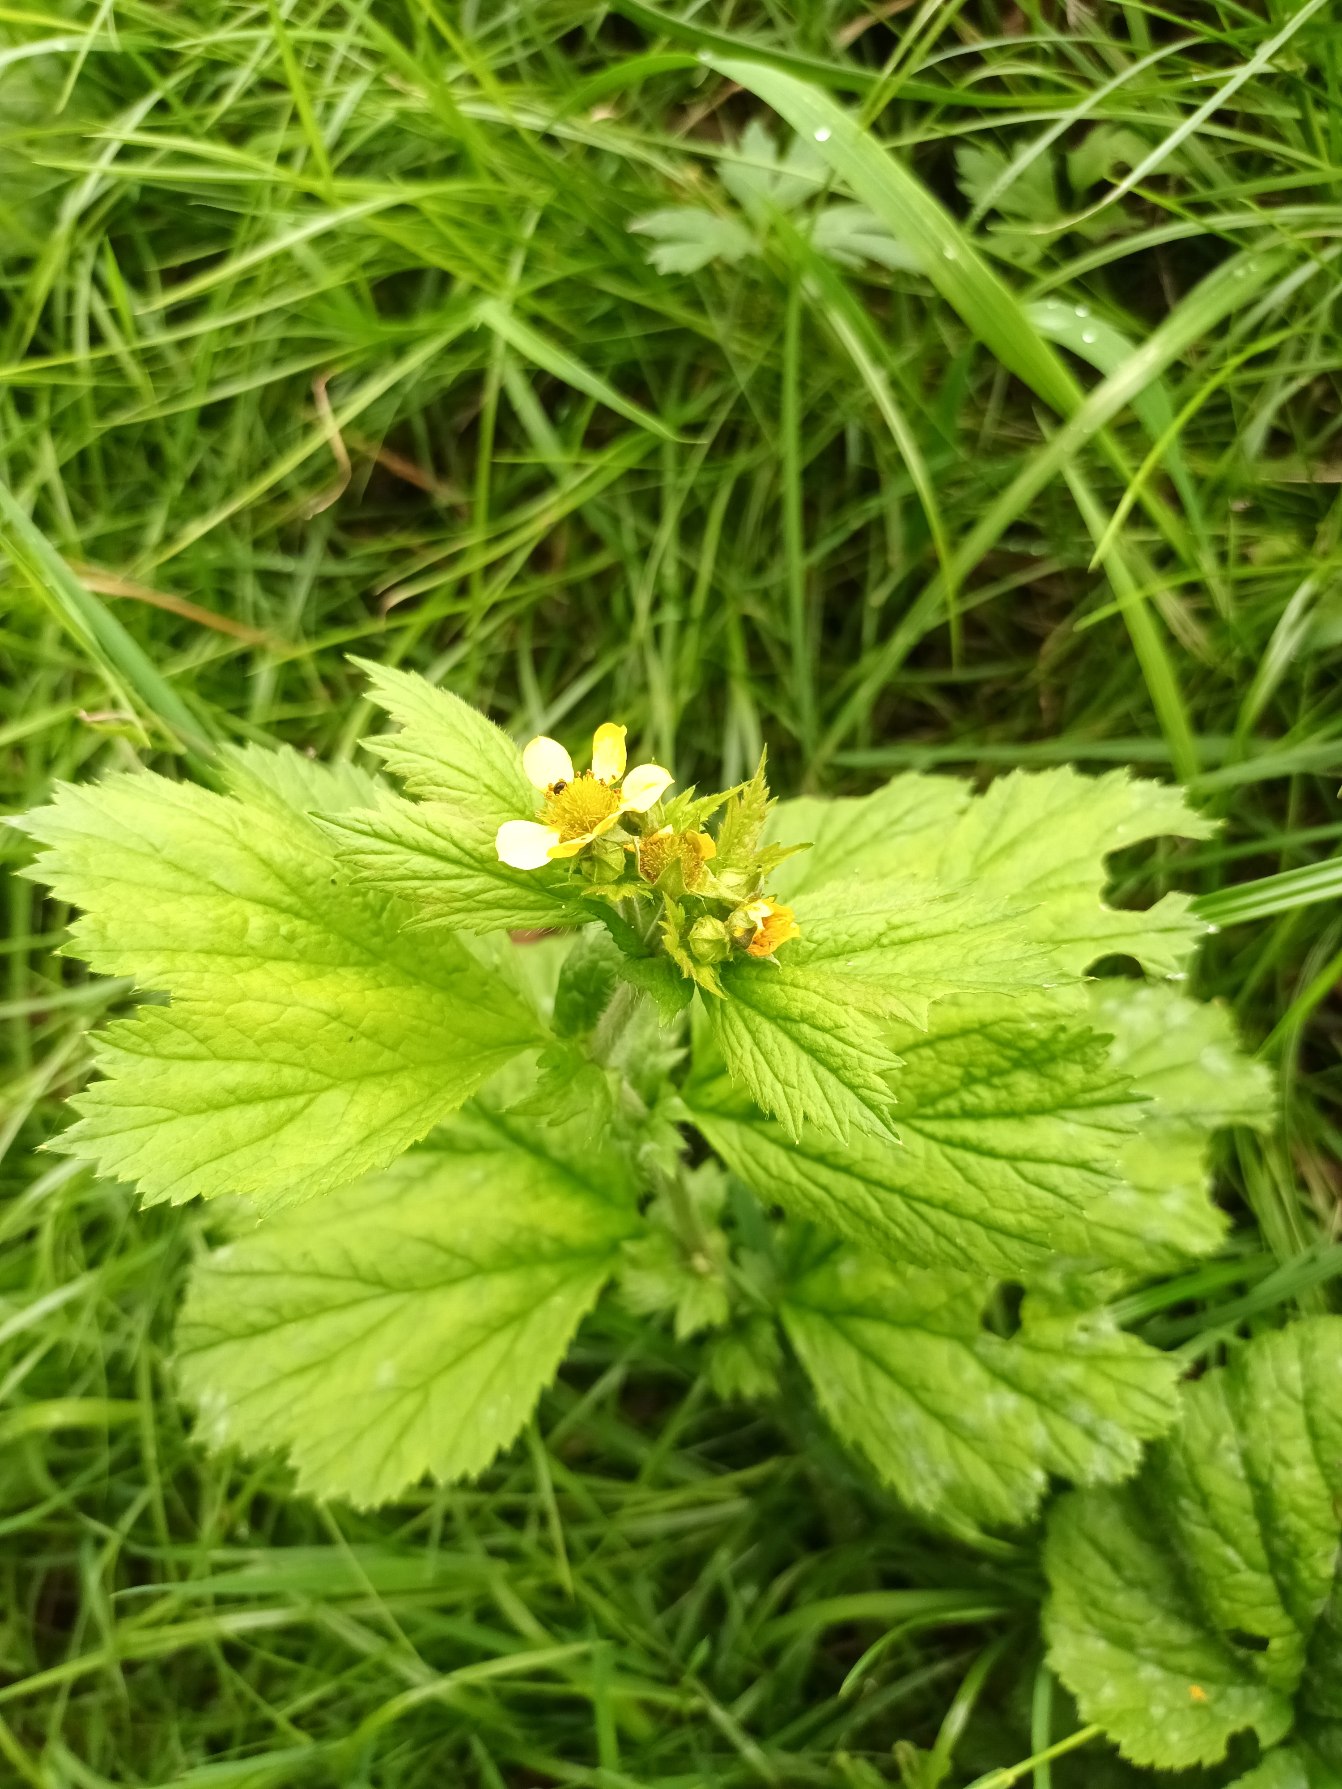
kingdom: Plantae
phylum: Tracheophyta
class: Magnoliopsida
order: Rosales
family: Rosaceae
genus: Geum
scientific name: Geum macrophyllum
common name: Amerikansk nellikerod
